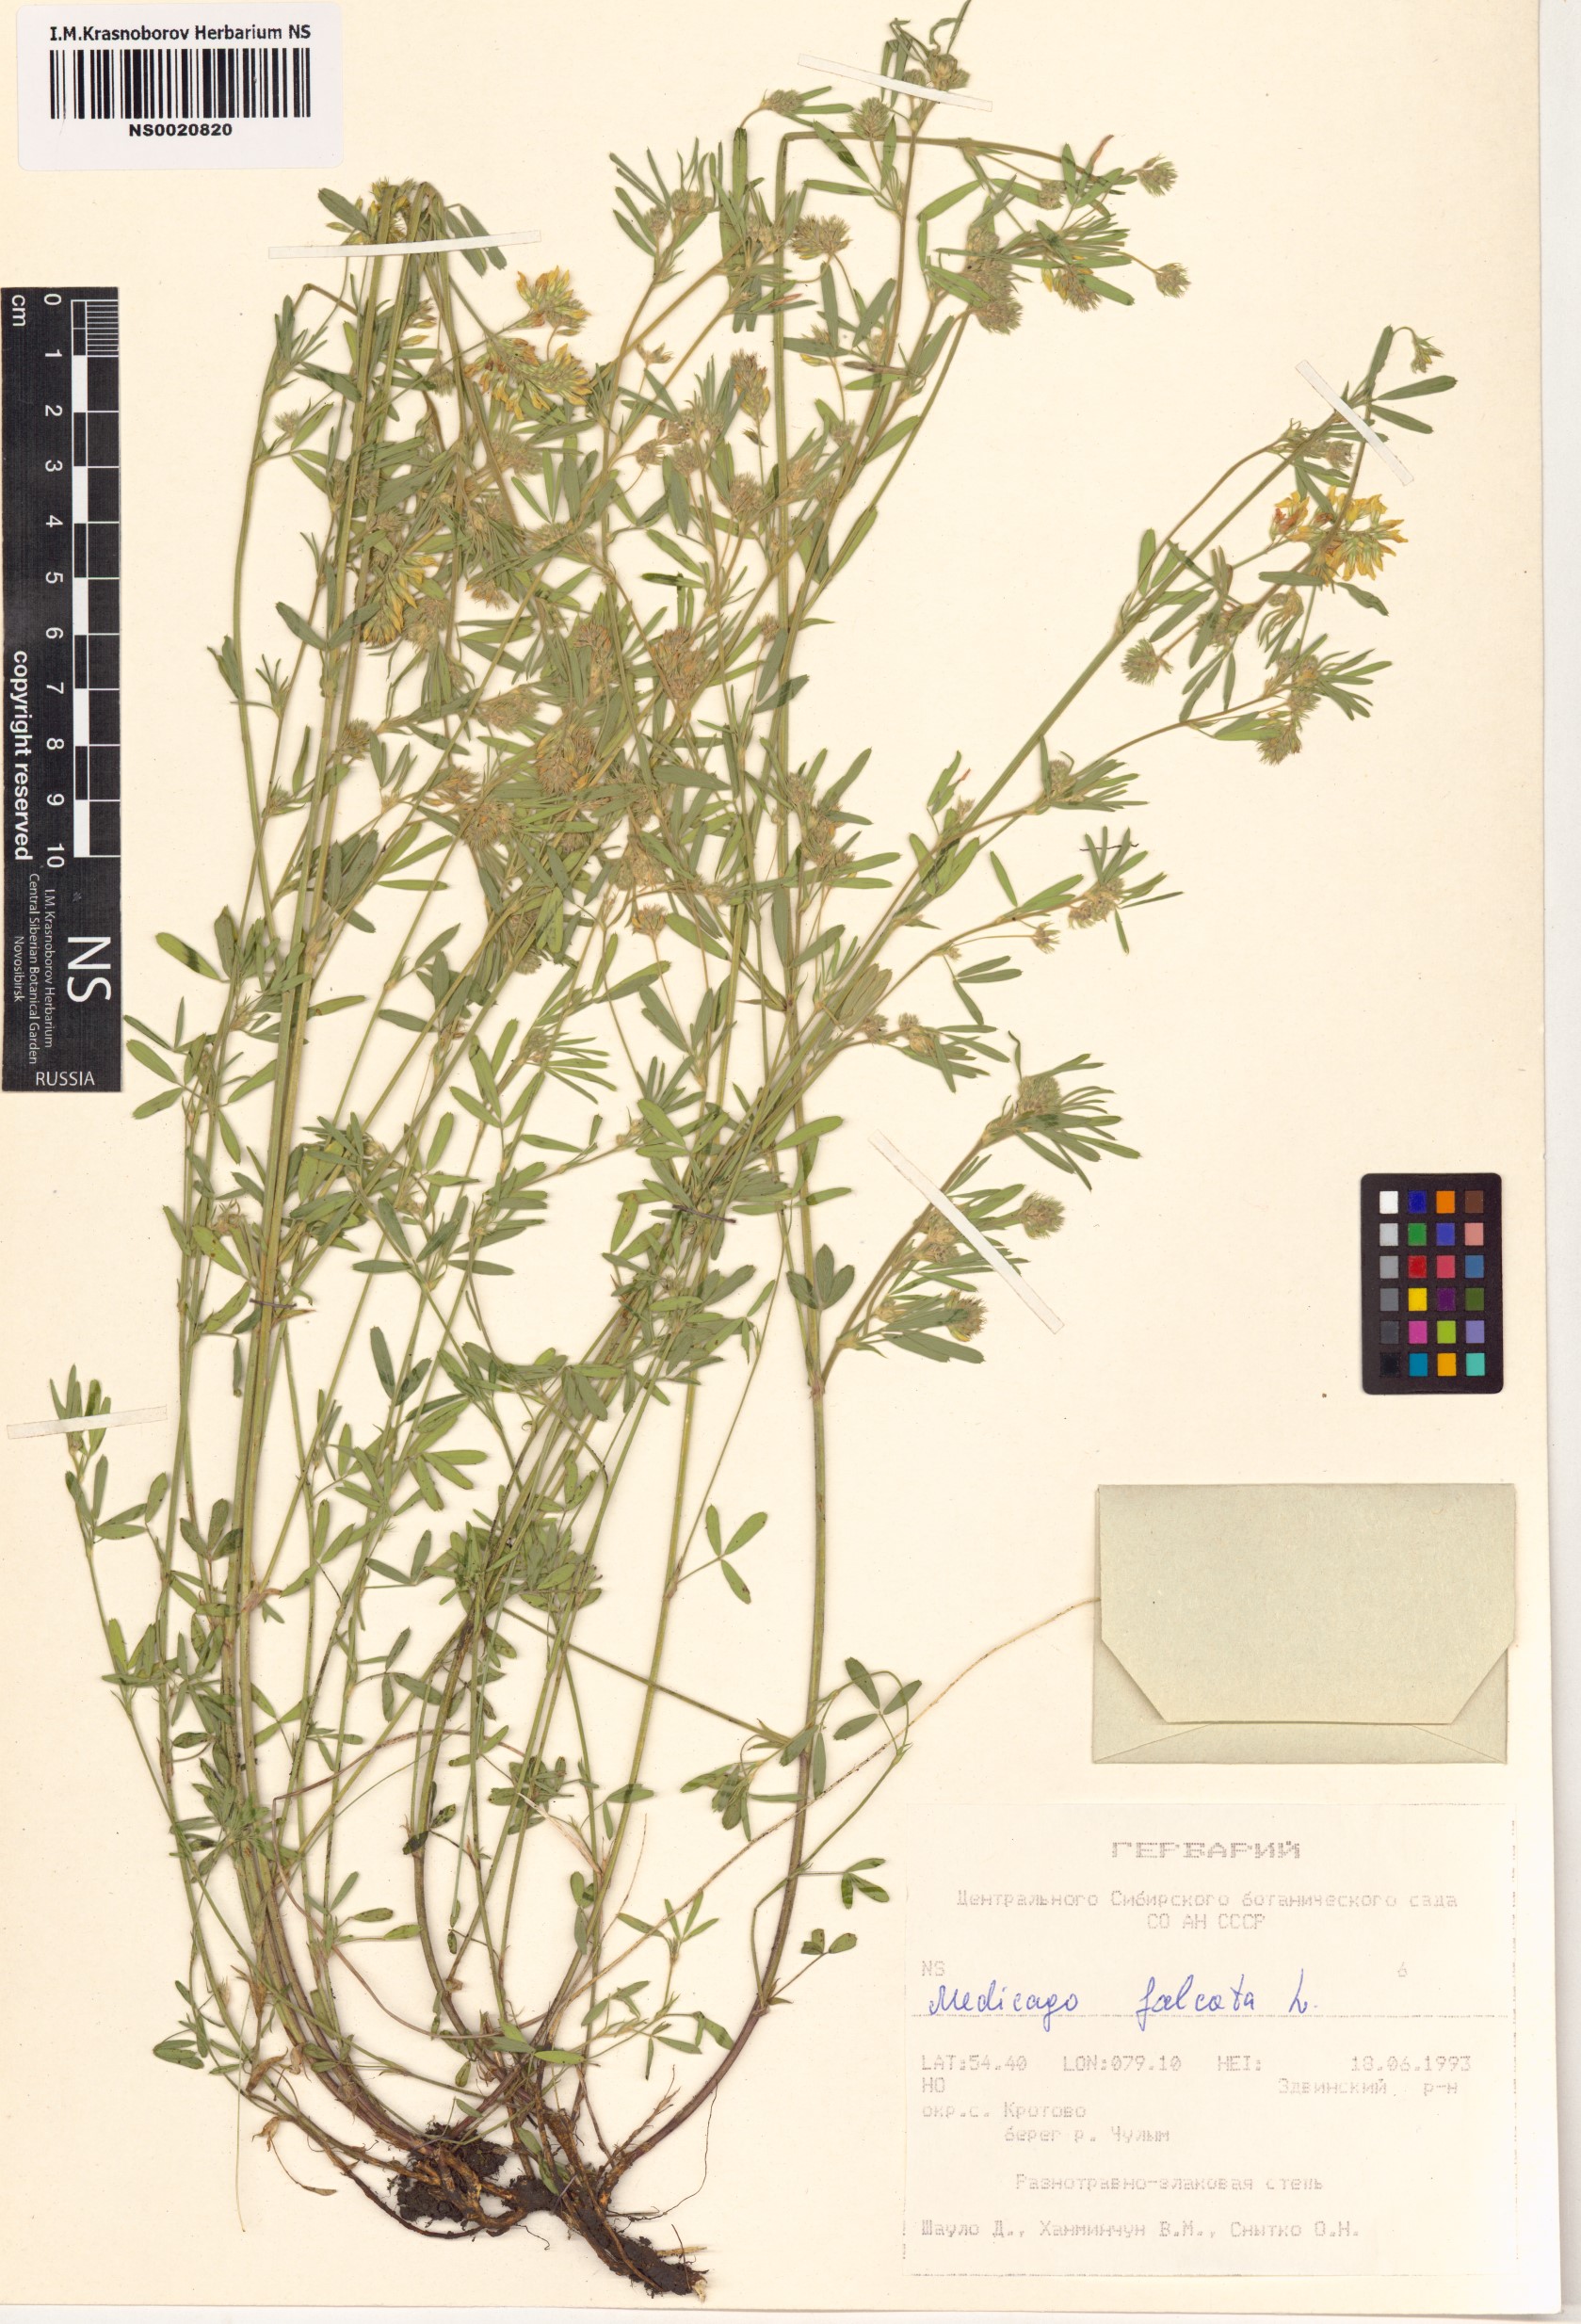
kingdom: Plantae
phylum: Tracheophyta
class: Magnoliopsida
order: Fabales
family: Fabaceae
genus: Medicago
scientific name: Medicago falcata
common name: Sickle medick
